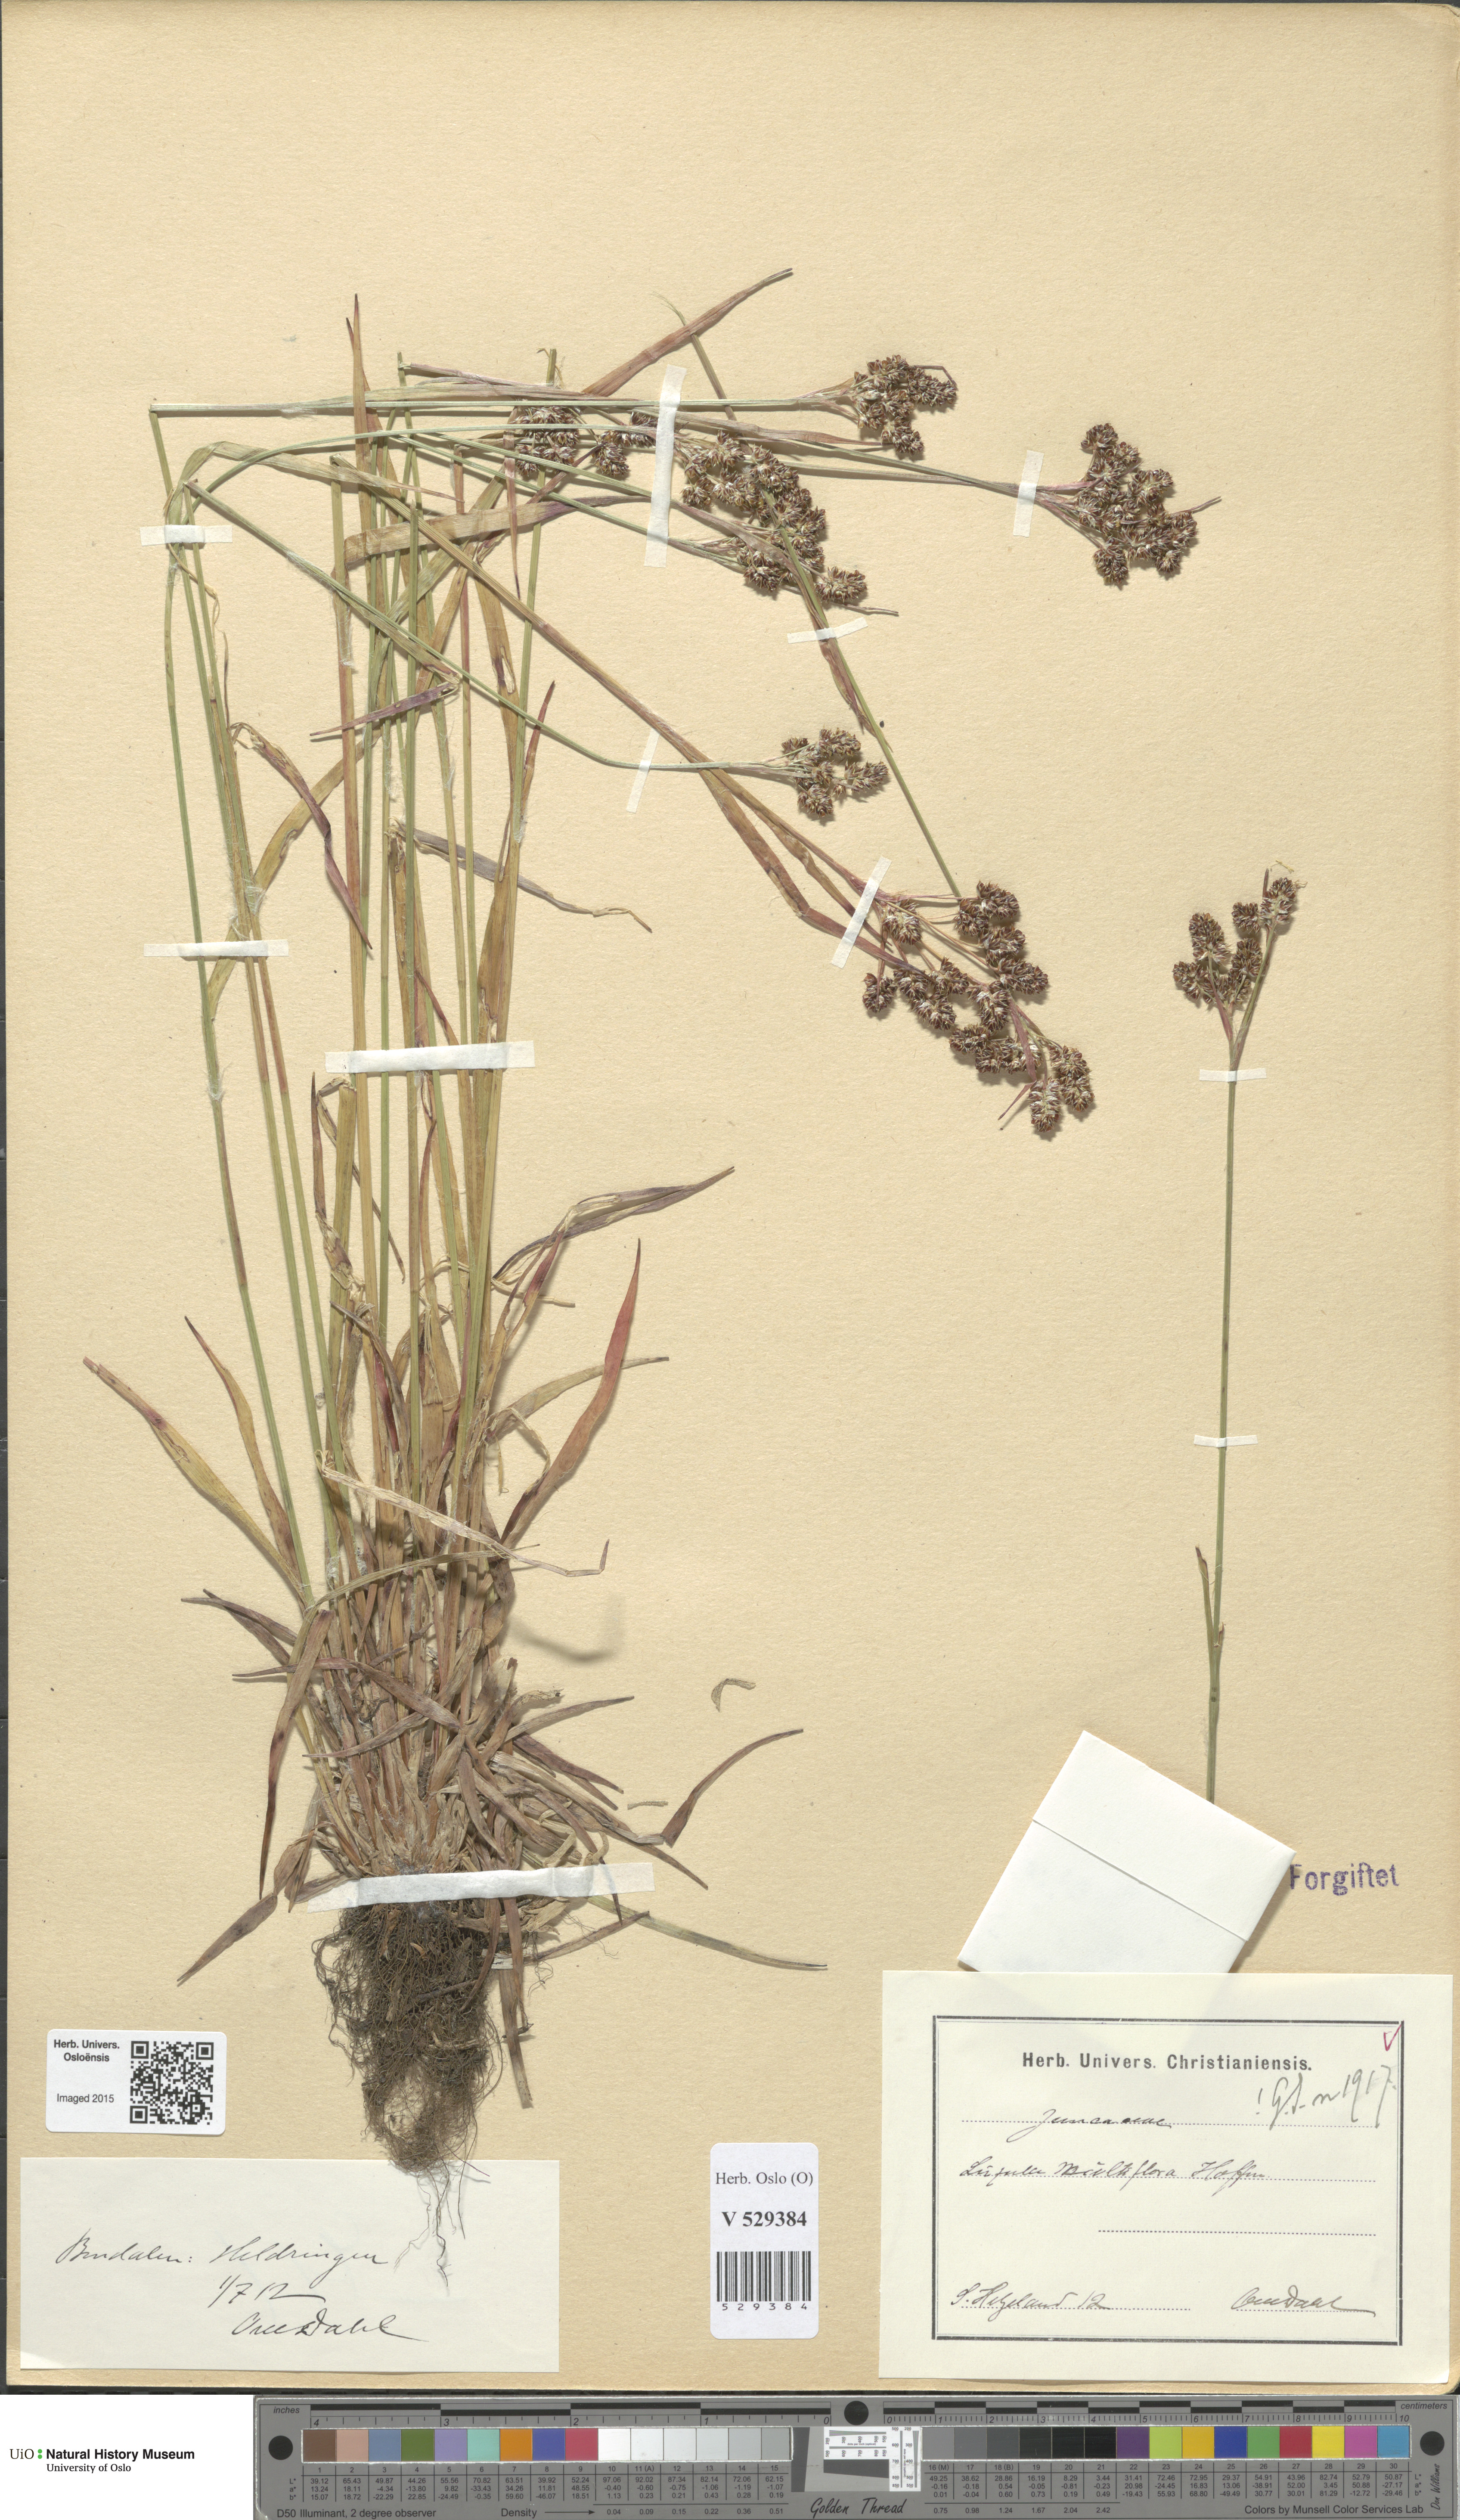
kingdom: Plantae
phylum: Tracheophyta
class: Liliopsida
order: Poales
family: Juncaceae
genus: Luzula
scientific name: Luzula multiflora
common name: Heath wood-rush
